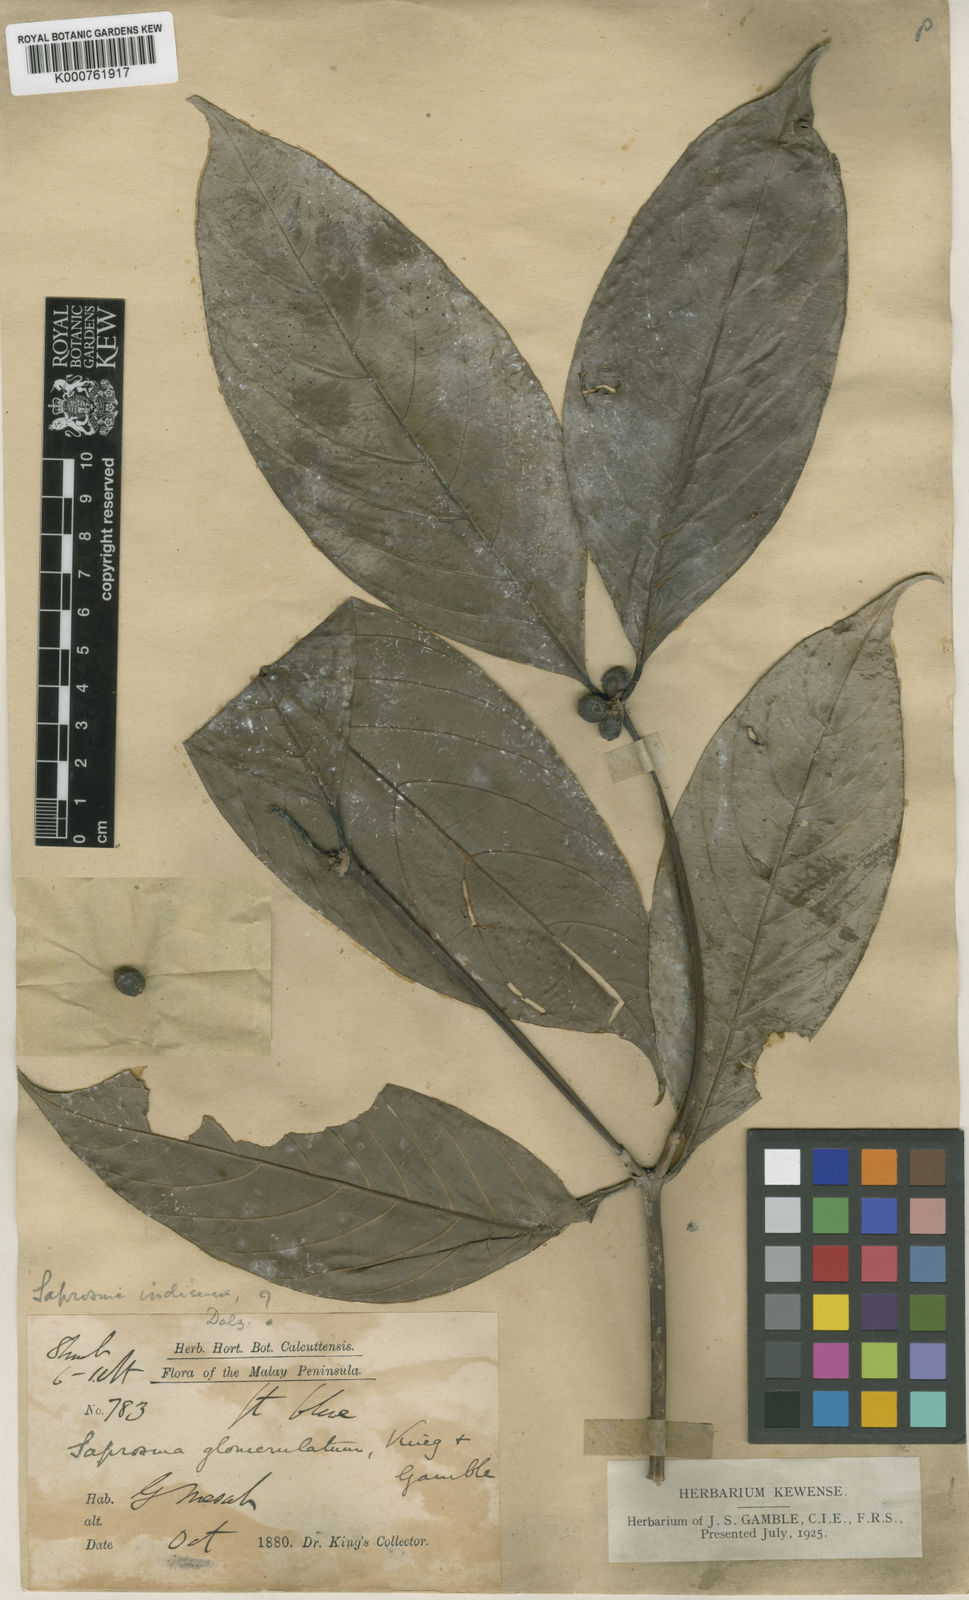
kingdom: Plantae
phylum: Tracheophyta
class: Magnoliopsida
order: Gentianales
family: Rubiaceae
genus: Saprosma
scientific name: Saprosma glomerulata
